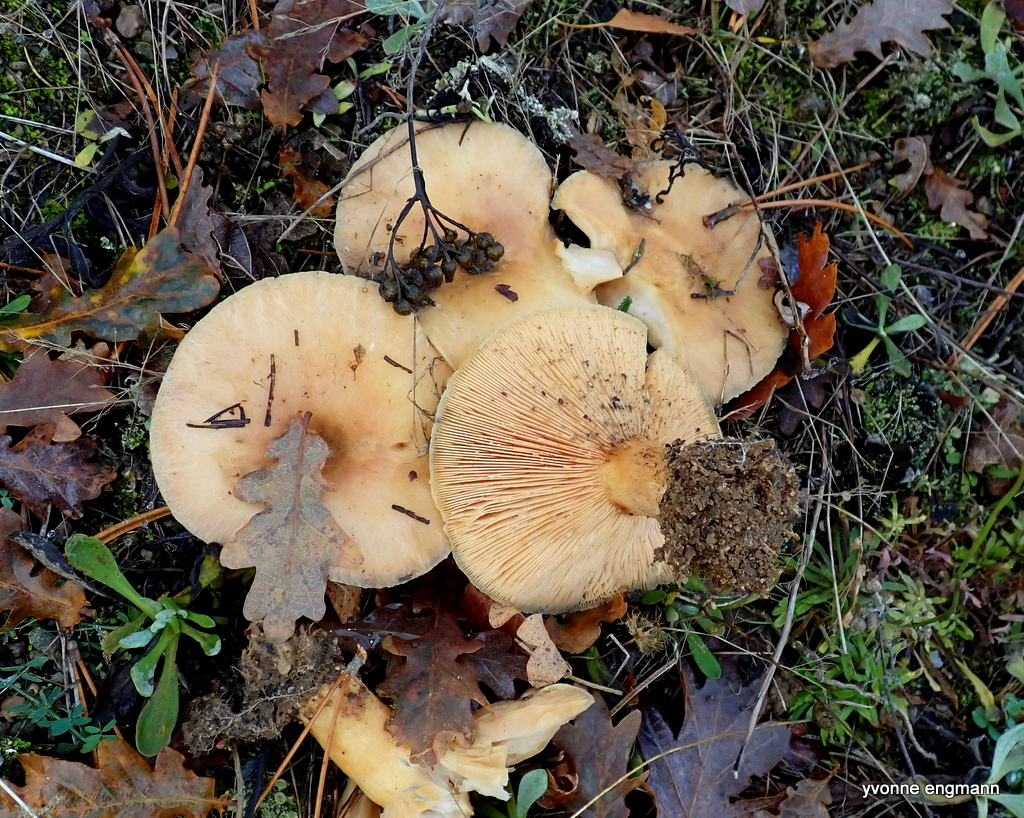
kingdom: Fungi
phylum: Basidiomycota
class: Agaricomycetes
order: Russulales
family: Russulaceae
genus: Lactarius
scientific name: Lactarius pubescens
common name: dunet mælkehat
